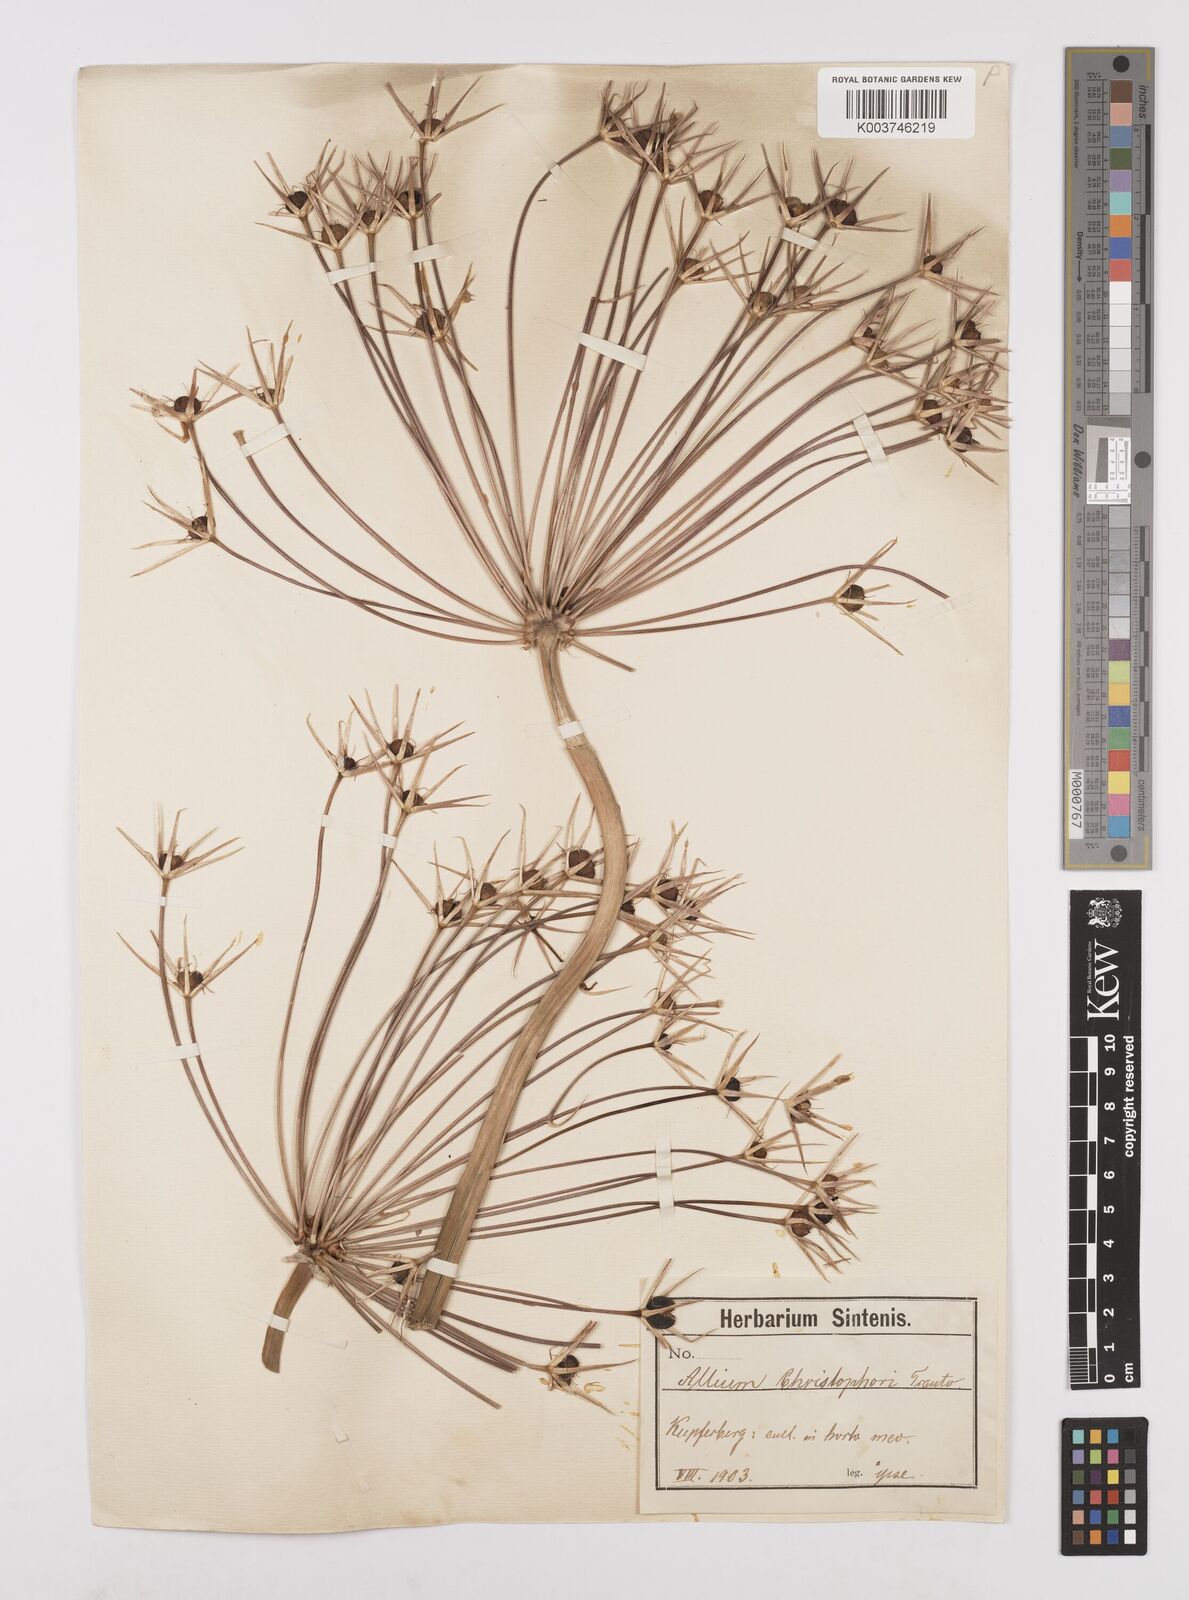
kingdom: Plantae
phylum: Tracheophyta
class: Liliopsida
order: Asparagales
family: Amaryllidaceae
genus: Allium
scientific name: Allium cristophii
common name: Persian onion
